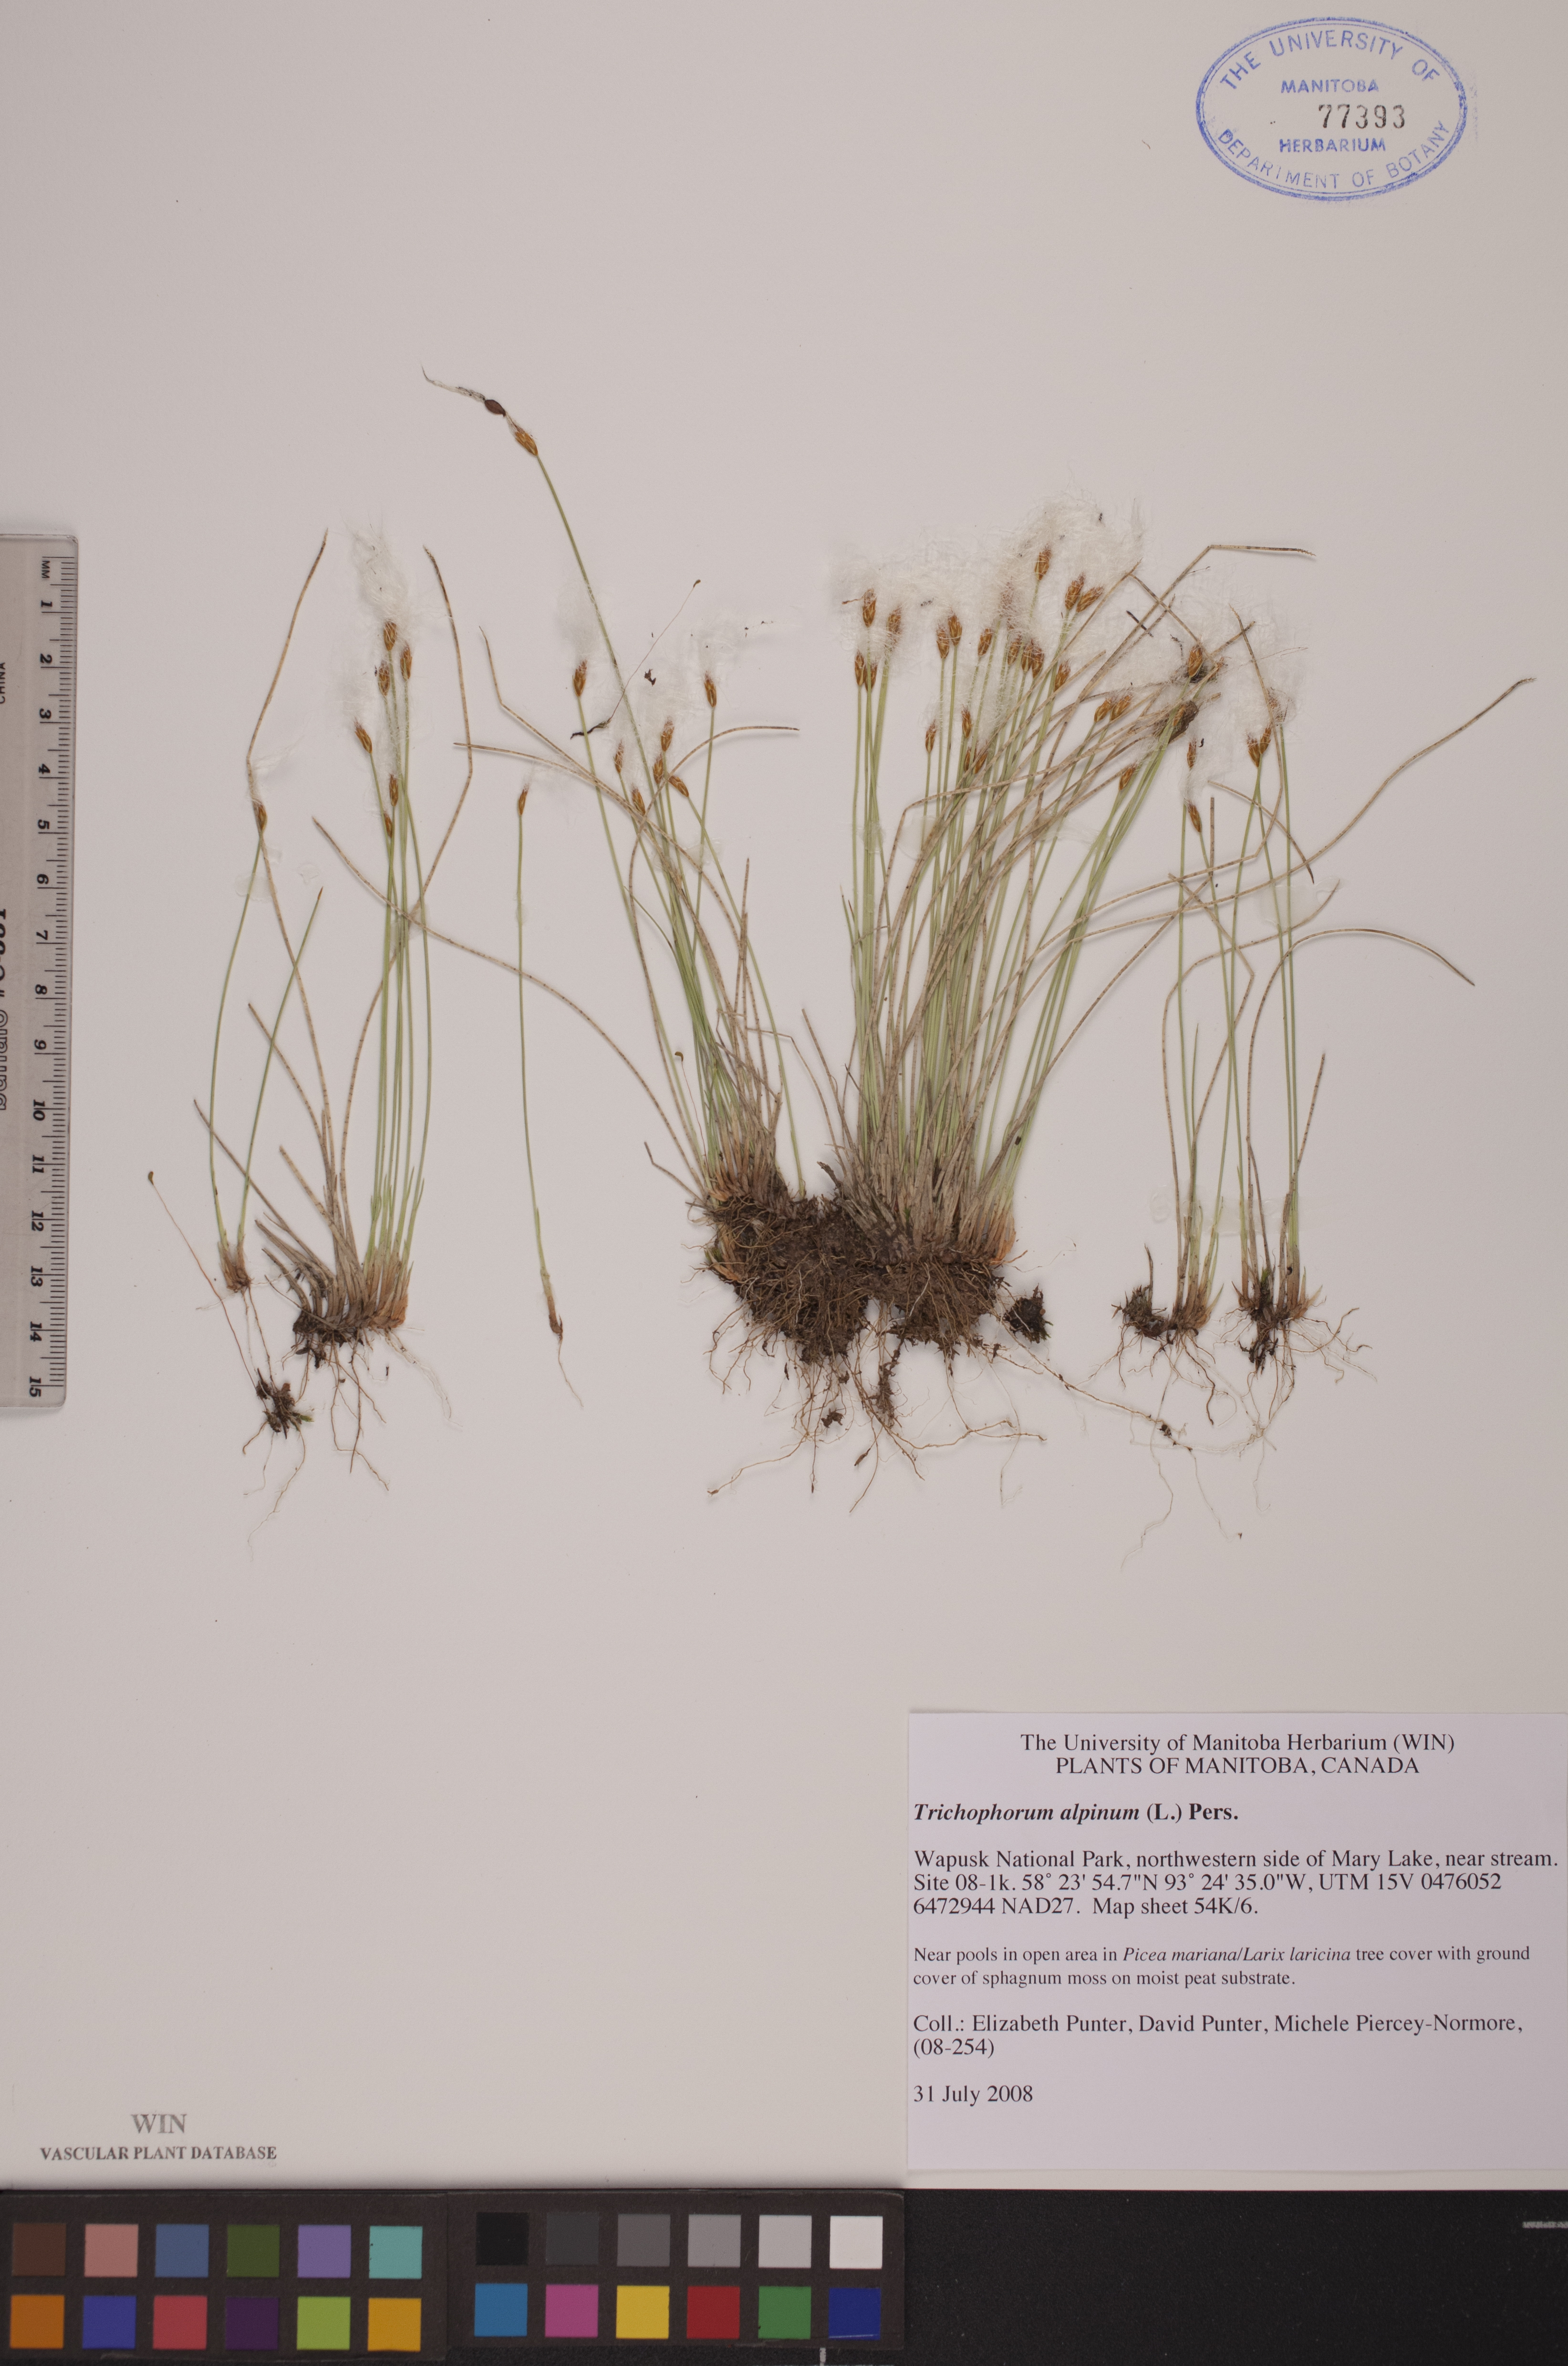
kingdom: Plantae
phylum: Tracheophyta
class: Liliopsida
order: Poales
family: Cyperaceae
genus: Trichophorum
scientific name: Trichophorum alpinum
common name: Alpine bulrush
